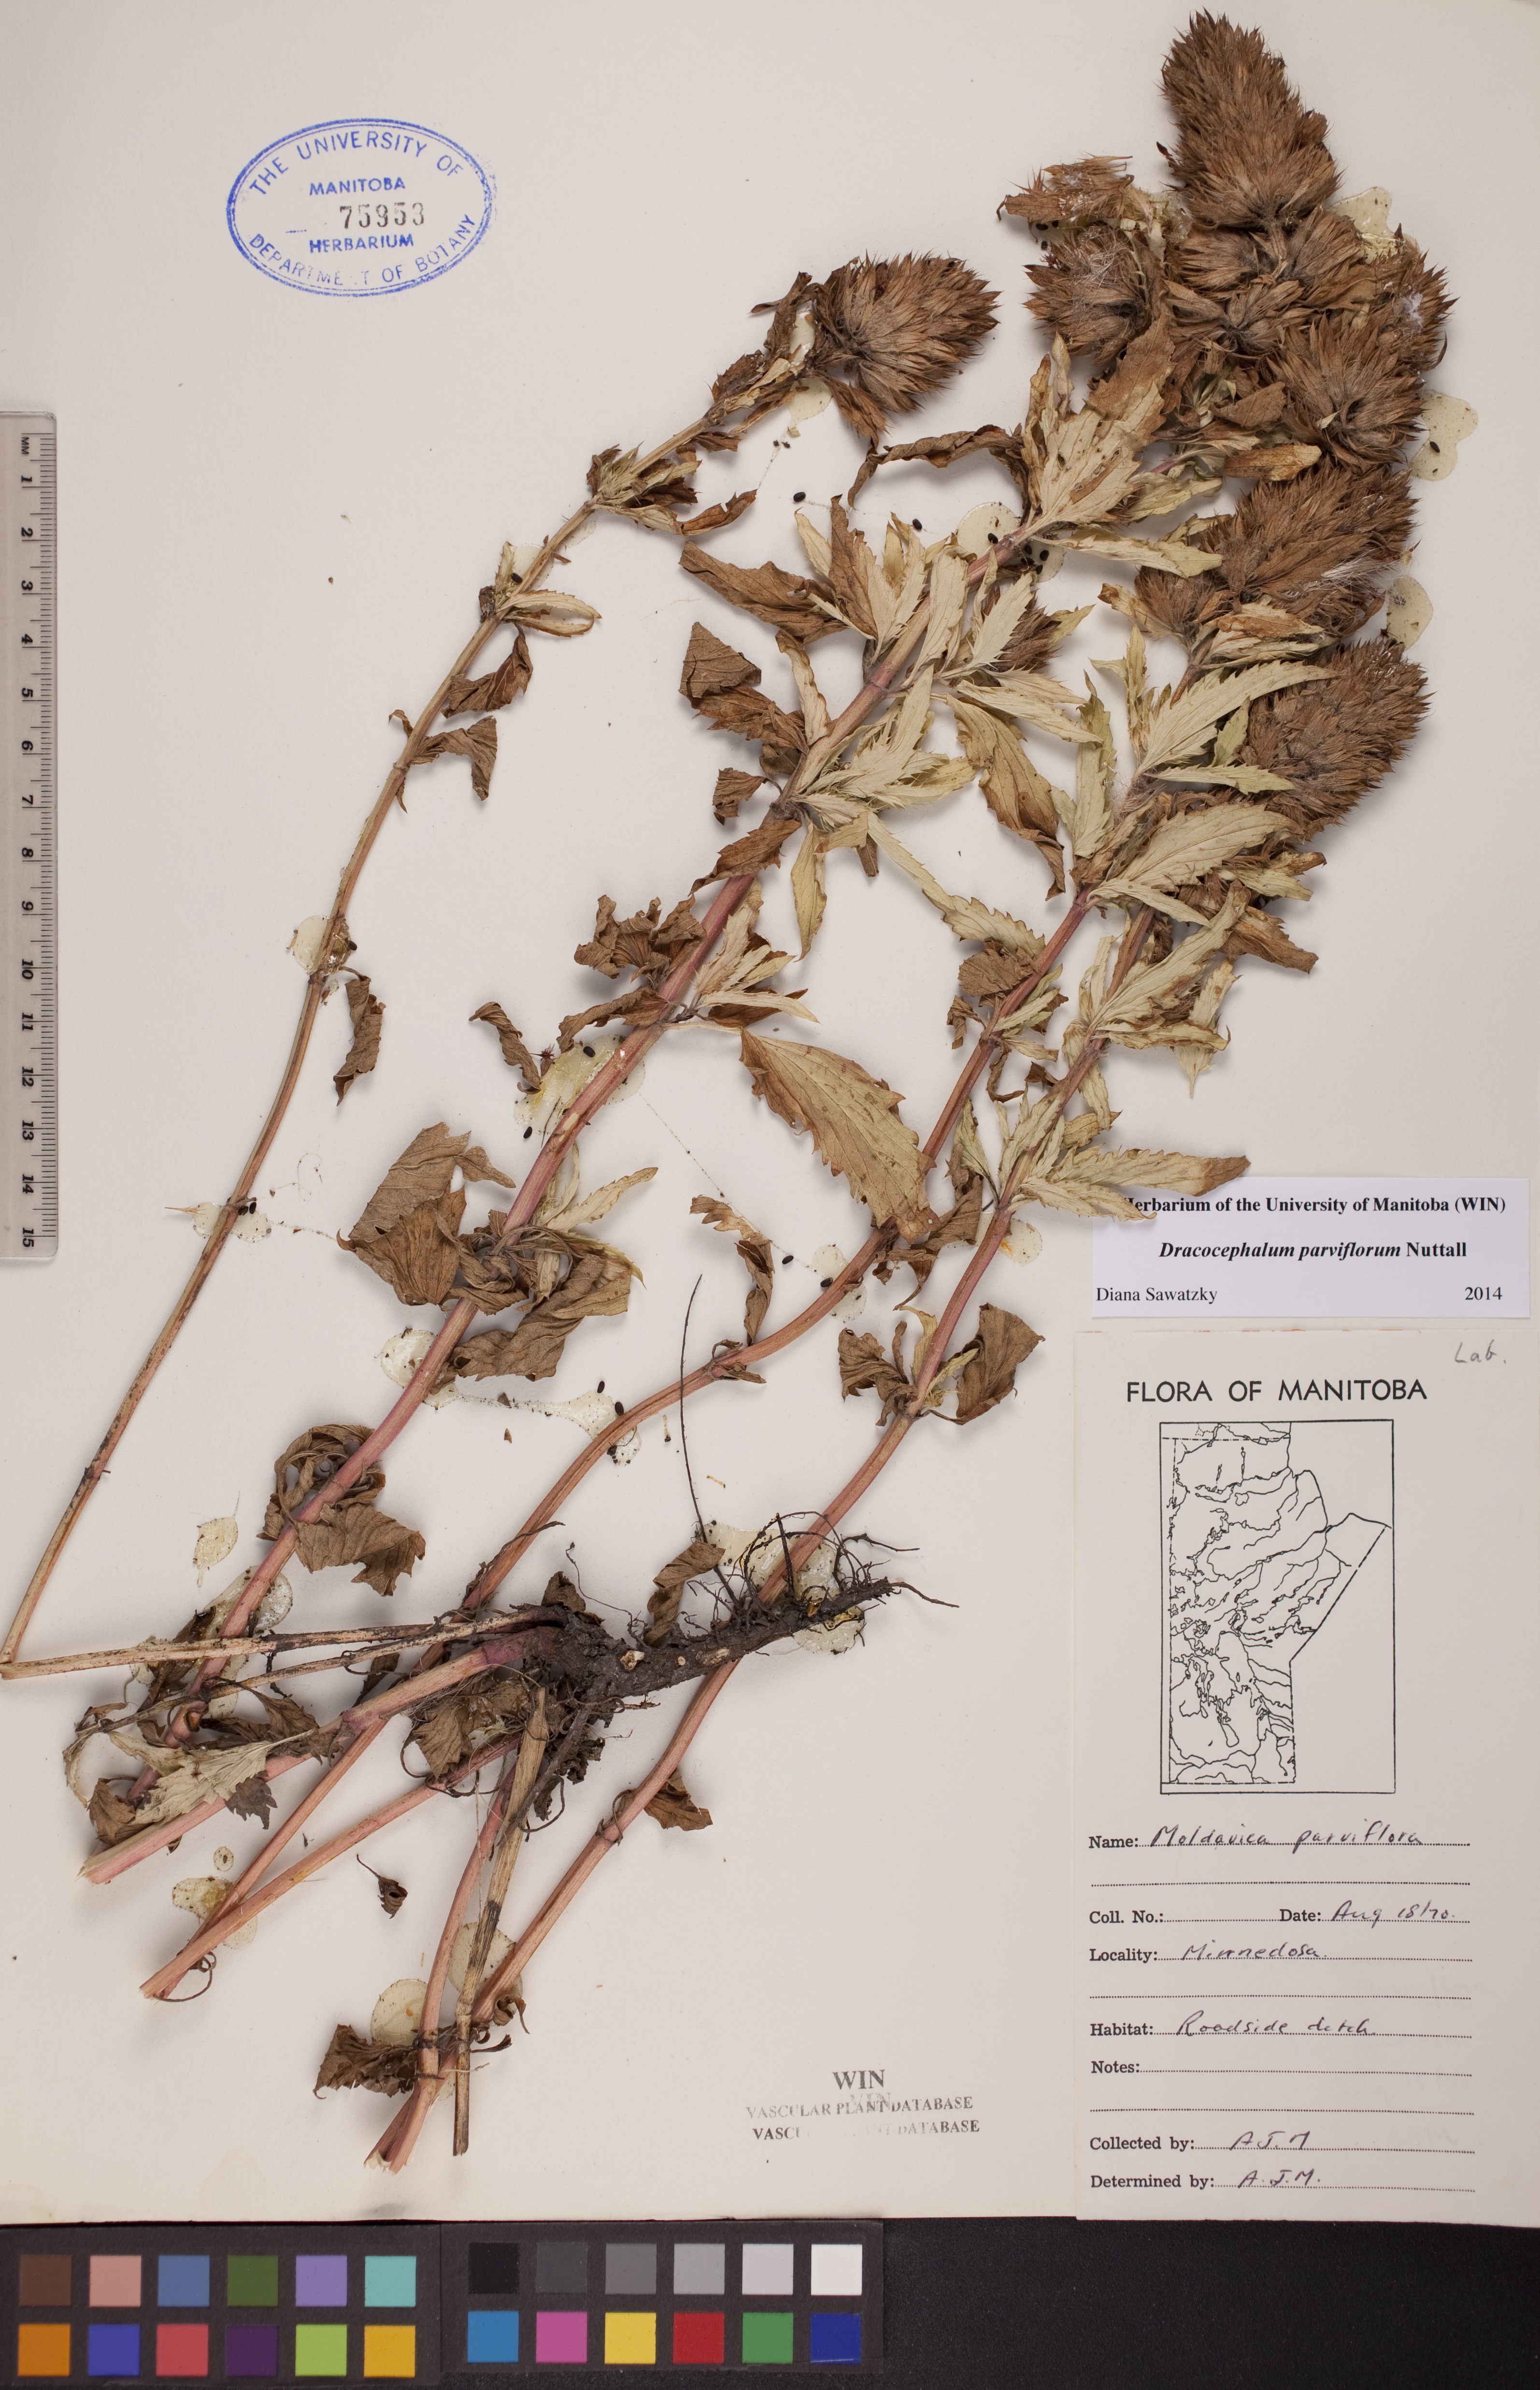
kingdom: Plantae
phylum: Tracheophyta
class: Magnoliopsida
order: Lamiales
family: Lamiaceae
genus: Dracocephalum
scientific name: Dracocephalum parviflorum
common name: American dragonhead
